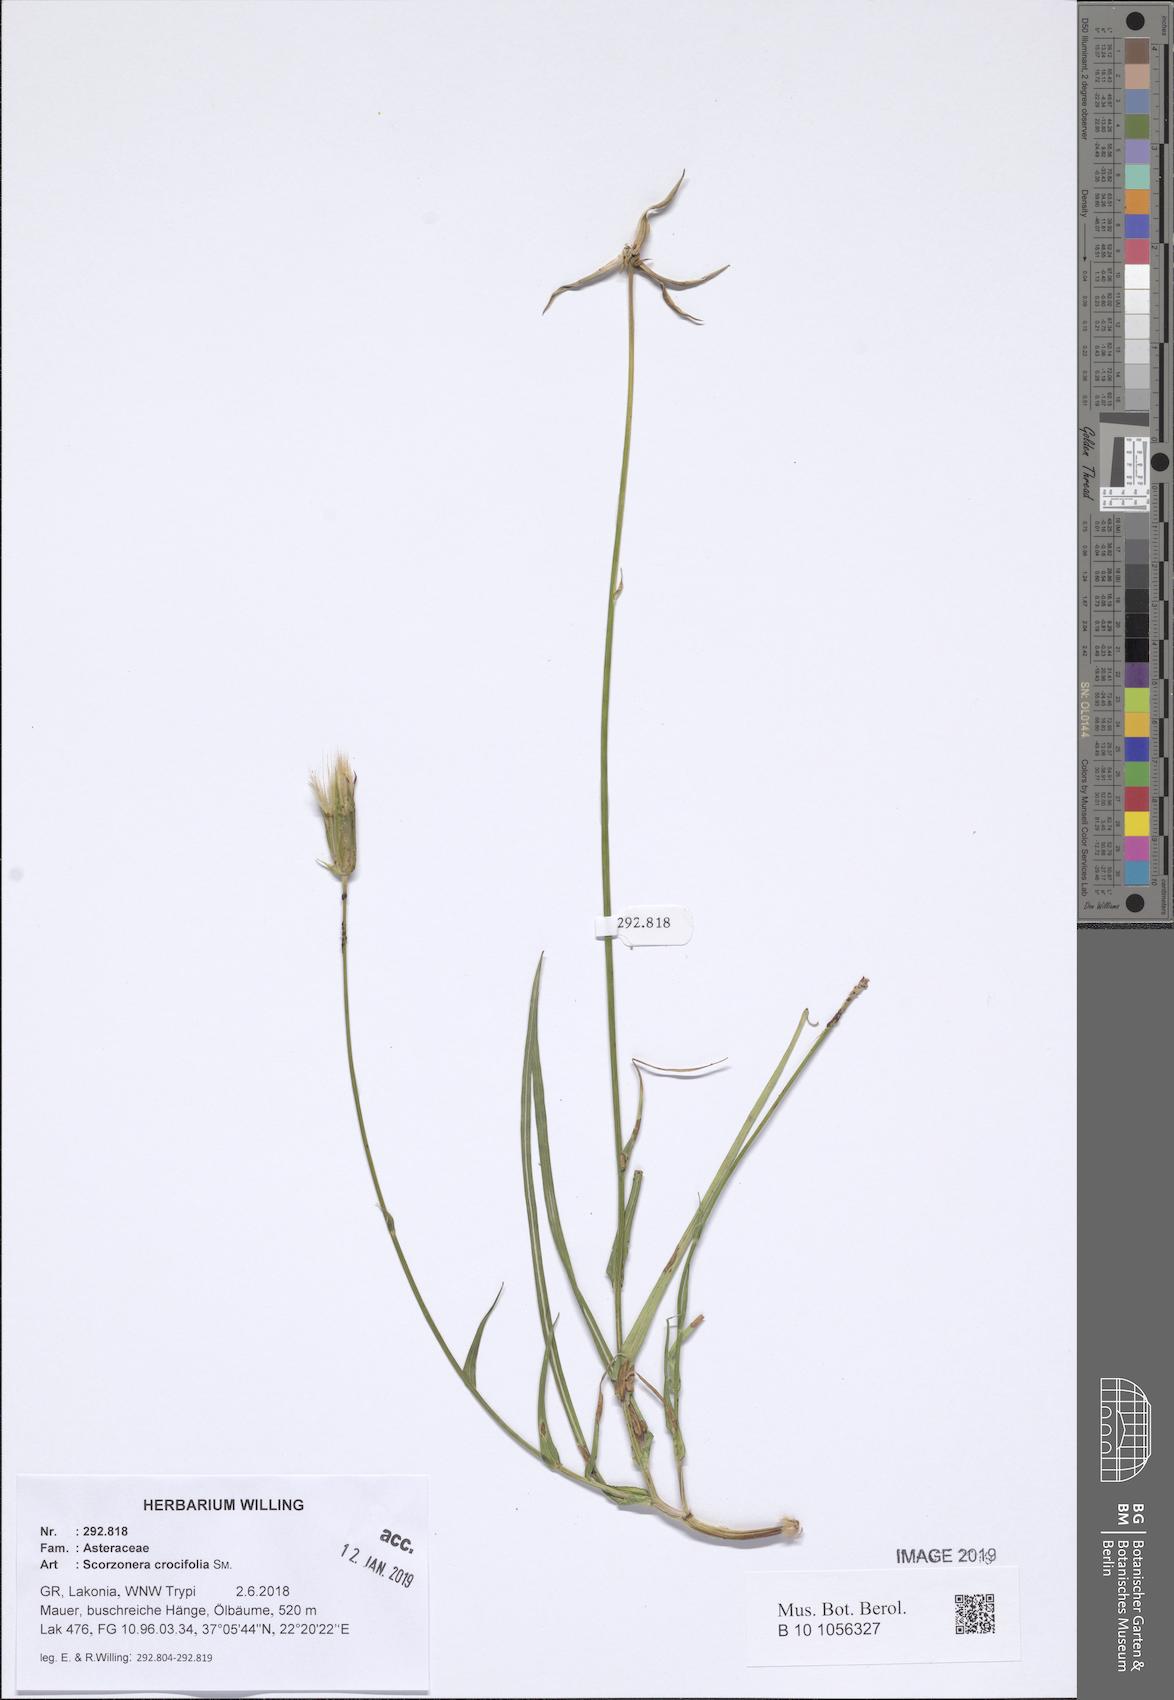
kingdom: Plantae
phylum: Tracheophyta
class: Magnoliopsida
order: Asterales
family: Asteraceae
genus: Pseudopodospermum
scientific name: Pseudopodospermum crocifolium
